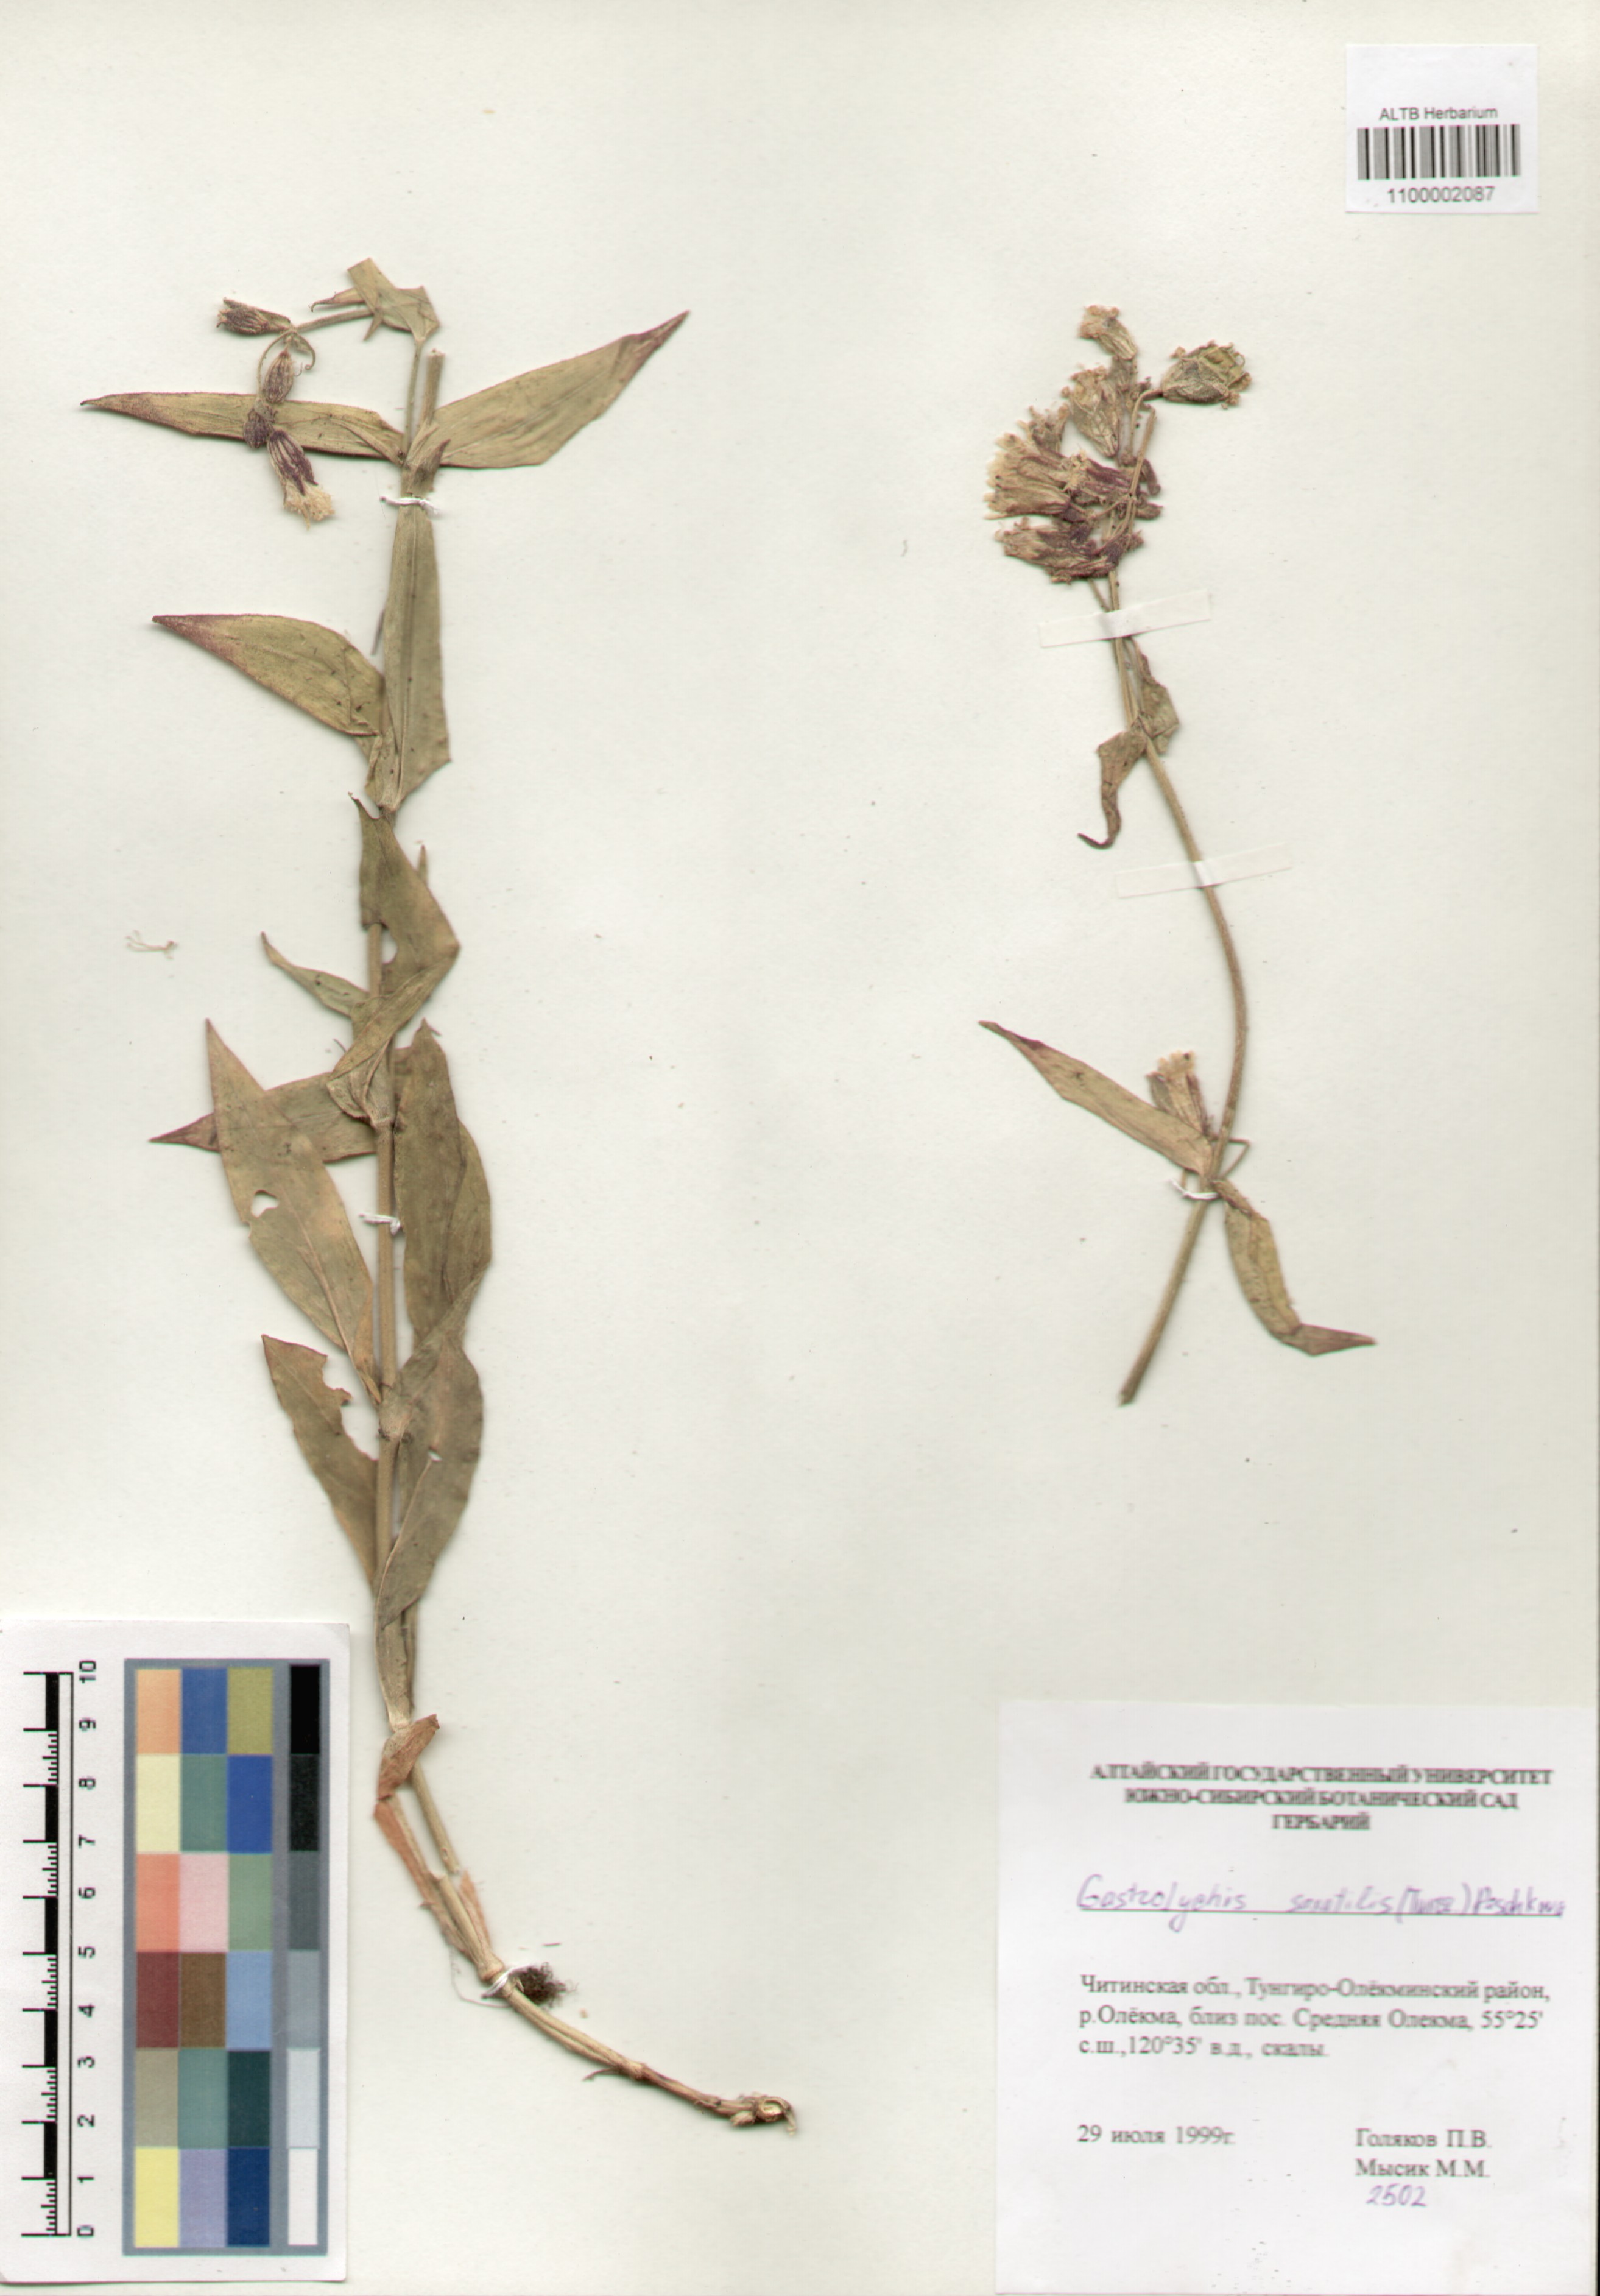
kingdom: Plantae
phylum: Tracheophyta
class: Magnoliopsida
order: Caryophyllales
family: Caryophyllaceae
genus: Silene
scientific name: Silene tolmatchevii
